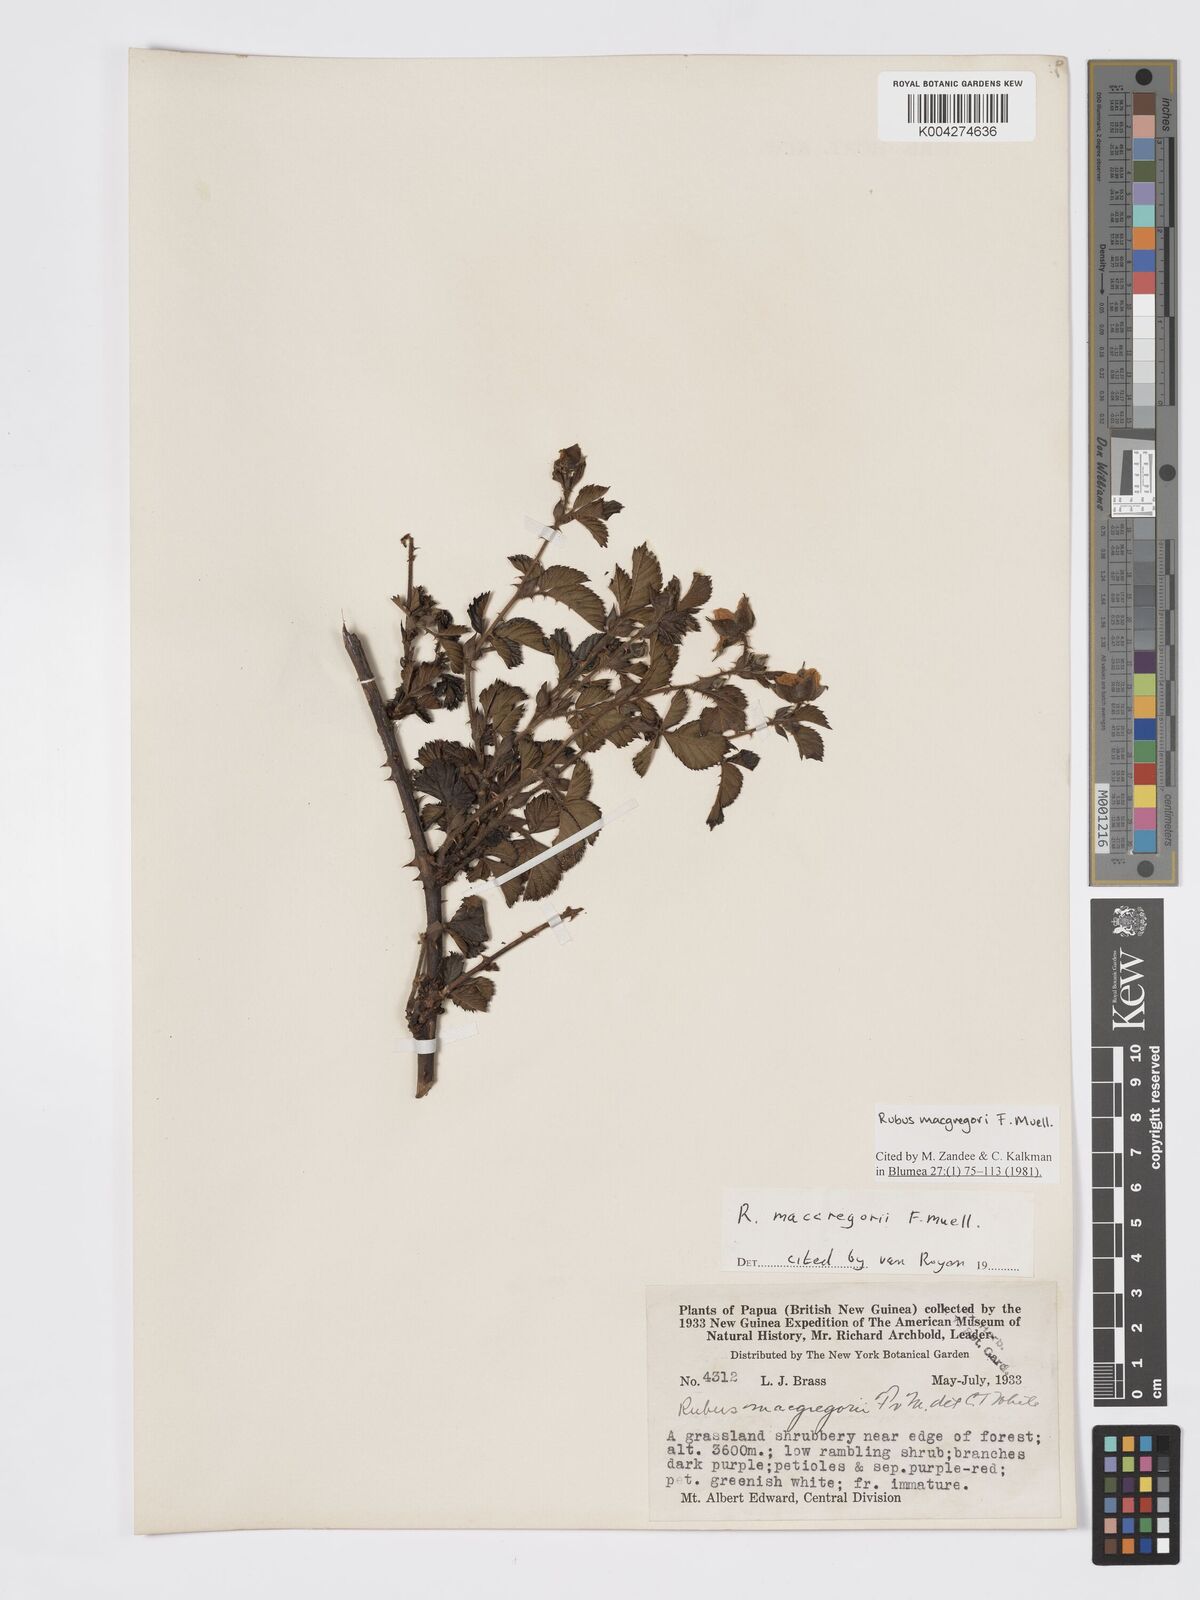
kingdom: Plantae
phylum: Tracheophyta
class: Magnoliopsida
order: Rosales
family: Rosaceae
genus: Rubus
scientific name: Rubus macgregorii
